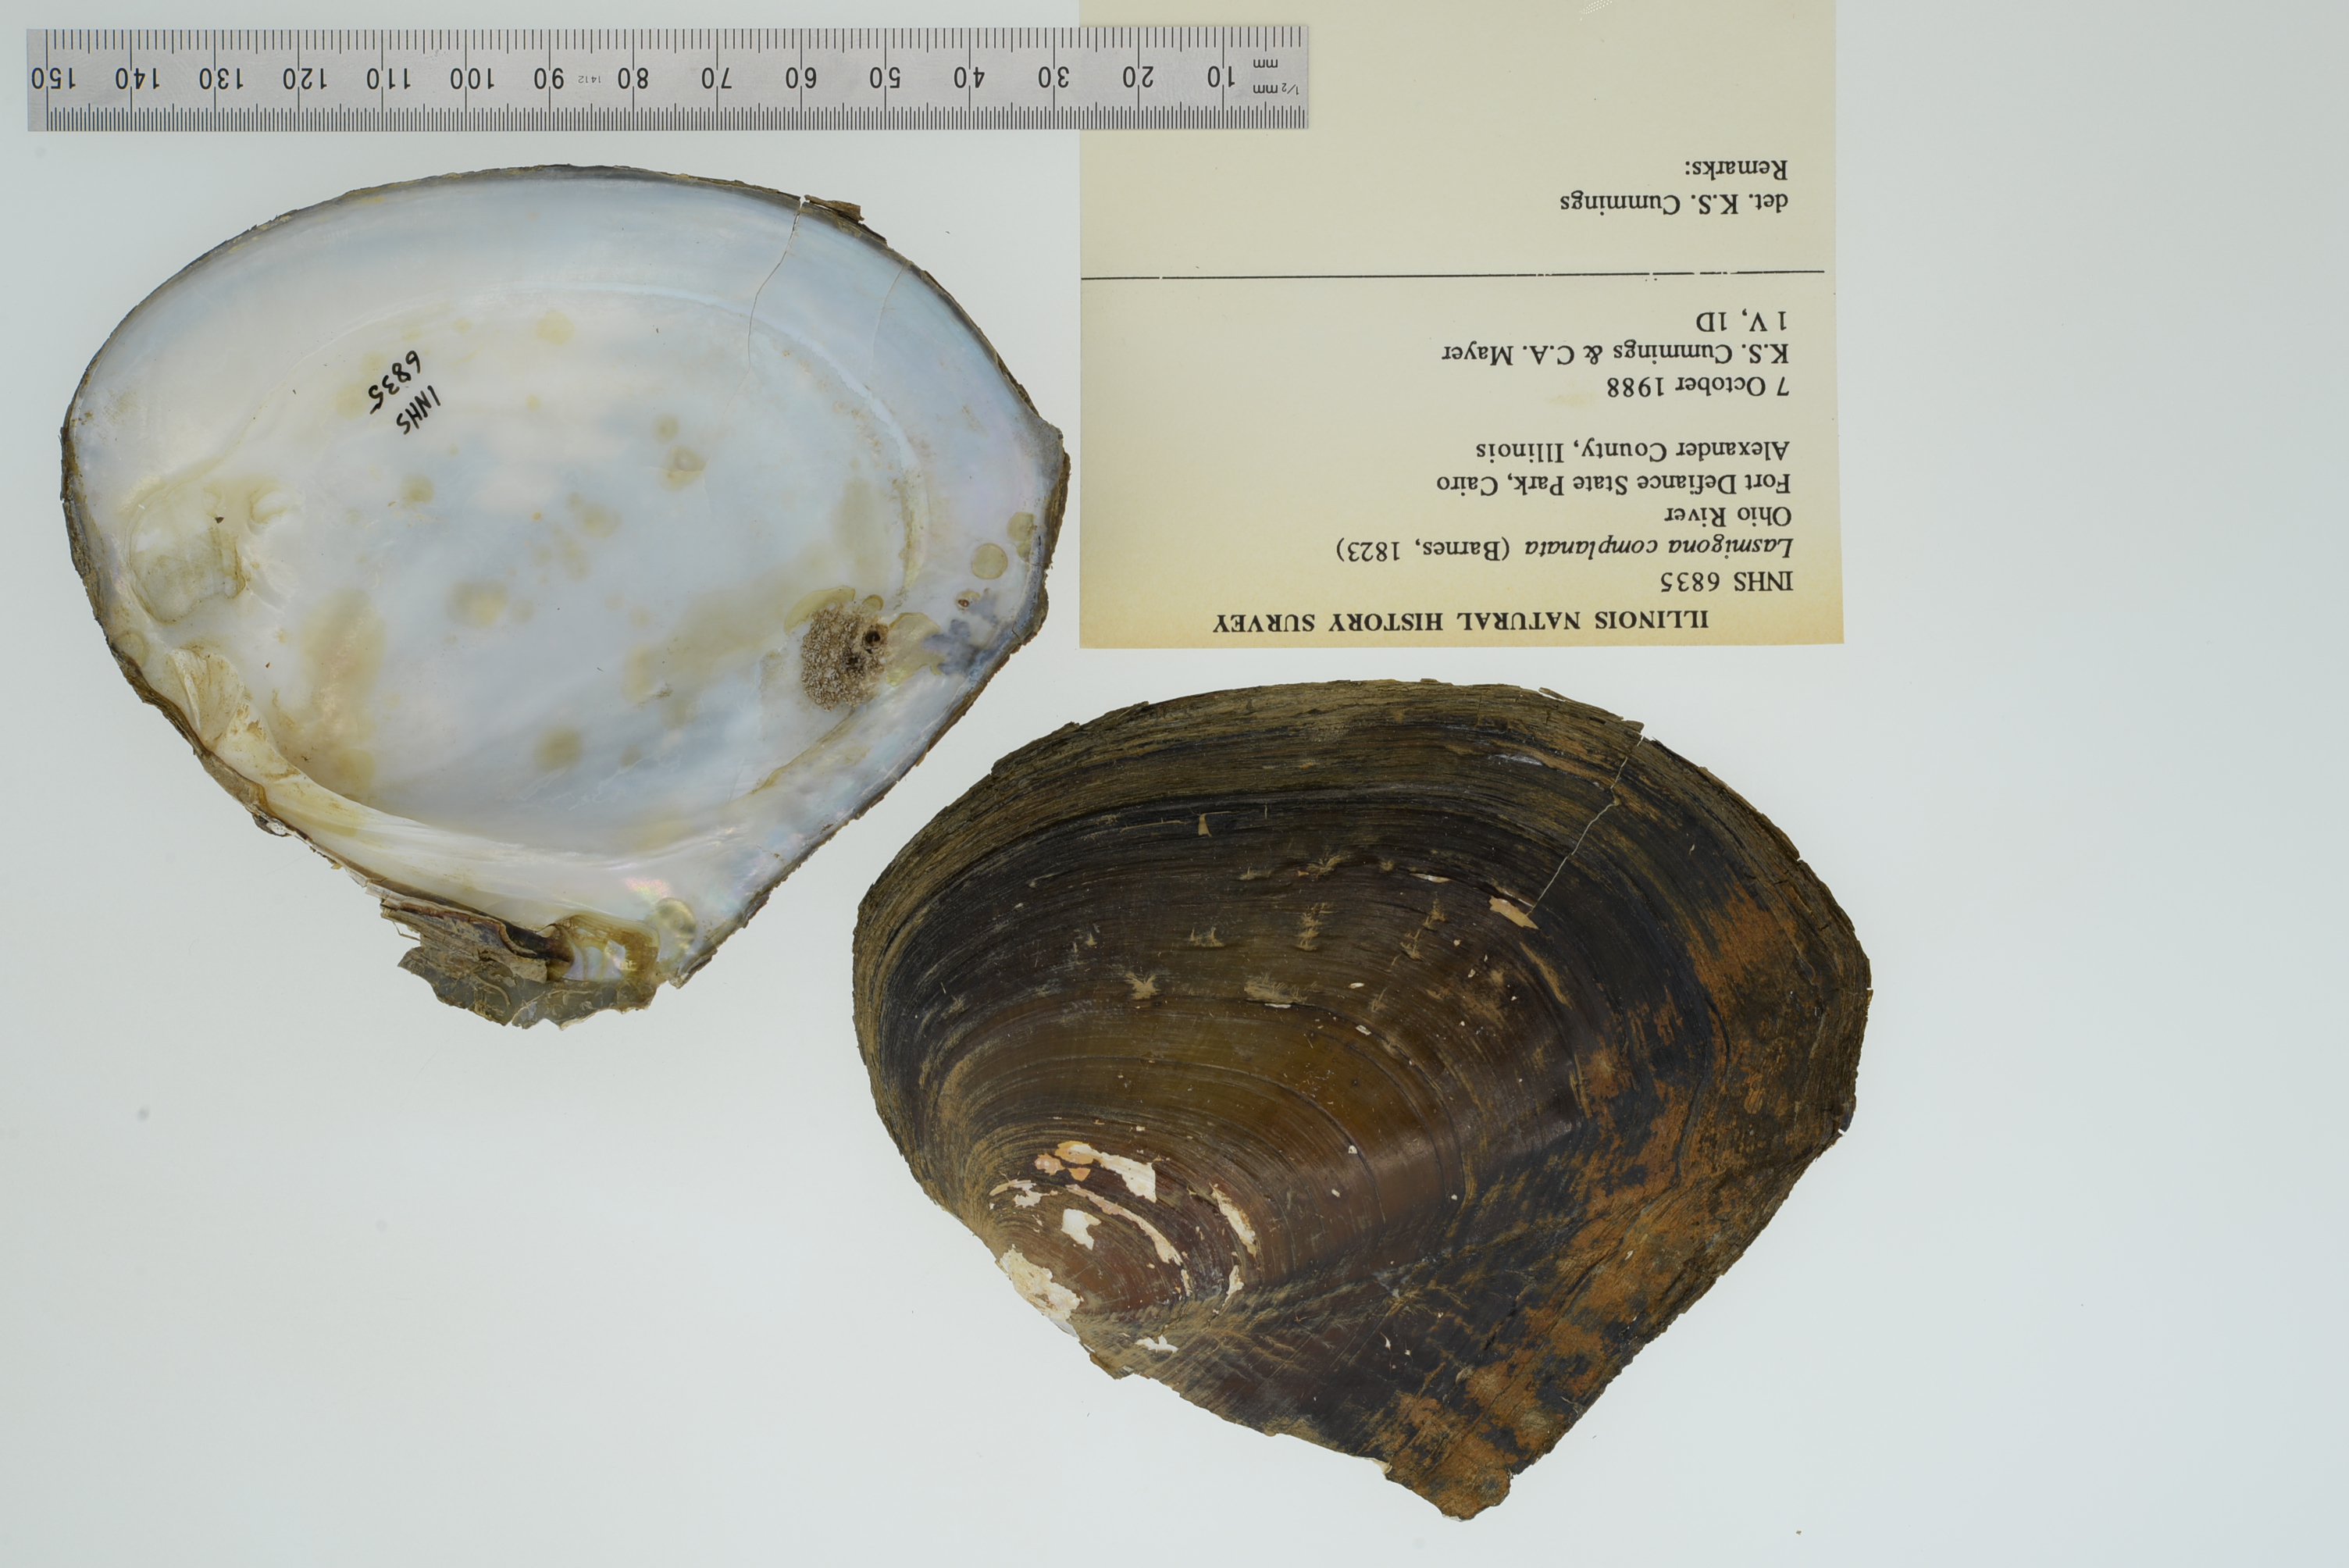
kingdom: Animalia
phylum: Mollusca
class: Bivalvia
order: Unionida
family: Unionidae
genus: Lasmigona
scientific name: Lasmigona complanata
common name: White heelsplitter
